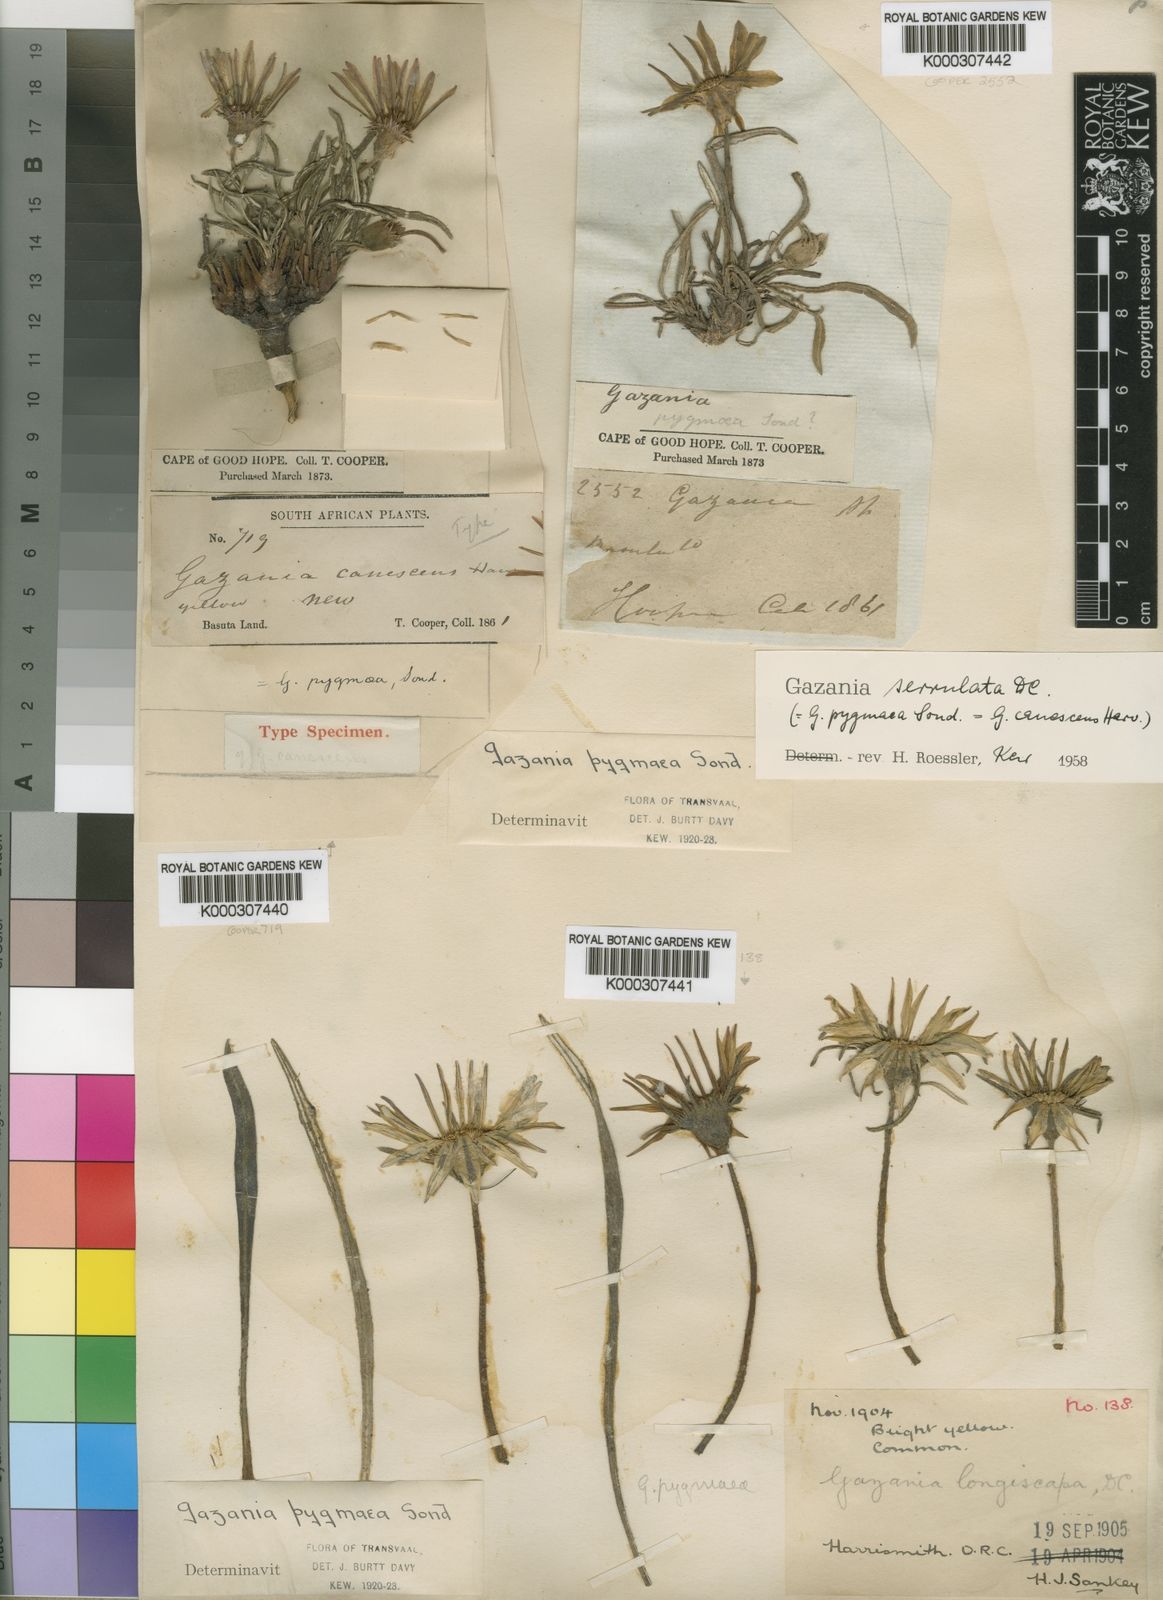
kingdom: Plantae
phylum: Tracheophyta
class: Magnoliopsida
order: Asterales
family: Asteraceae
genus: Gazania
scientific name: Gazania krebsiana
